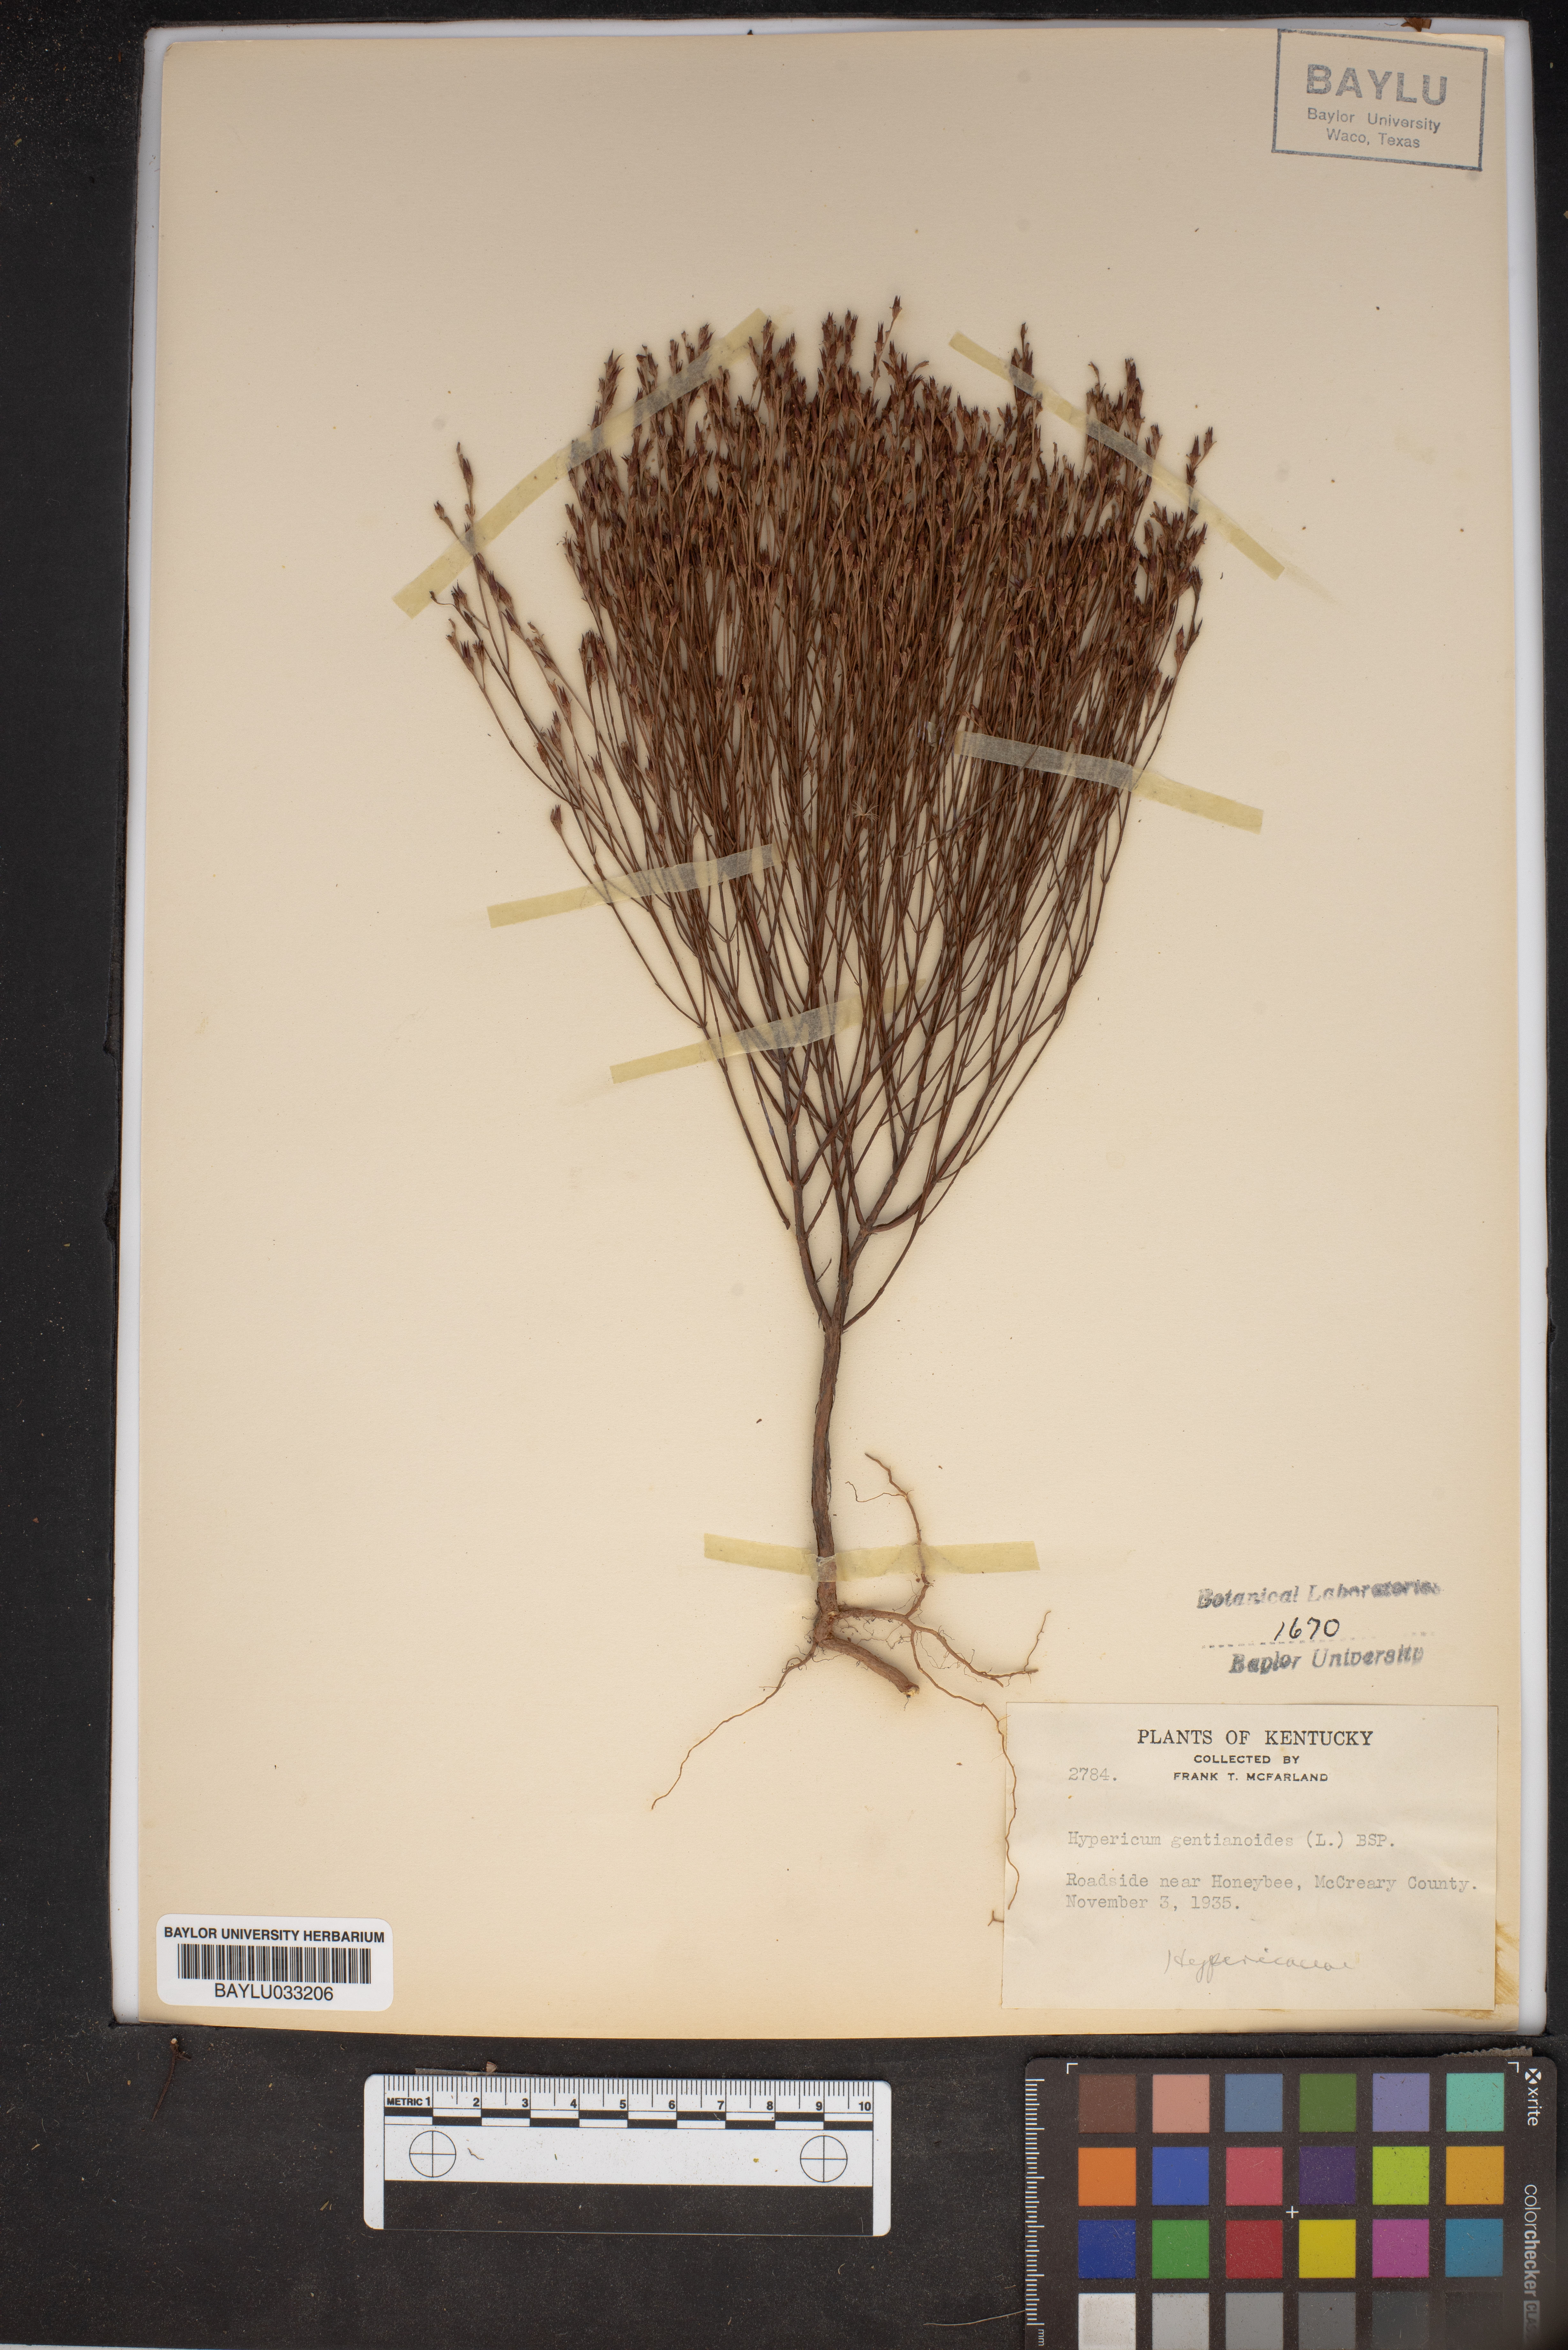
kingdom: Plantae
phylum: Tracheophyta
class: Magnoliopsida
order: Malpighiales
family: Hypericaceae
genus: Hypericum
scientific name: Hypericum gentianoides
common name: Gentian-leaved st. john's-wort
